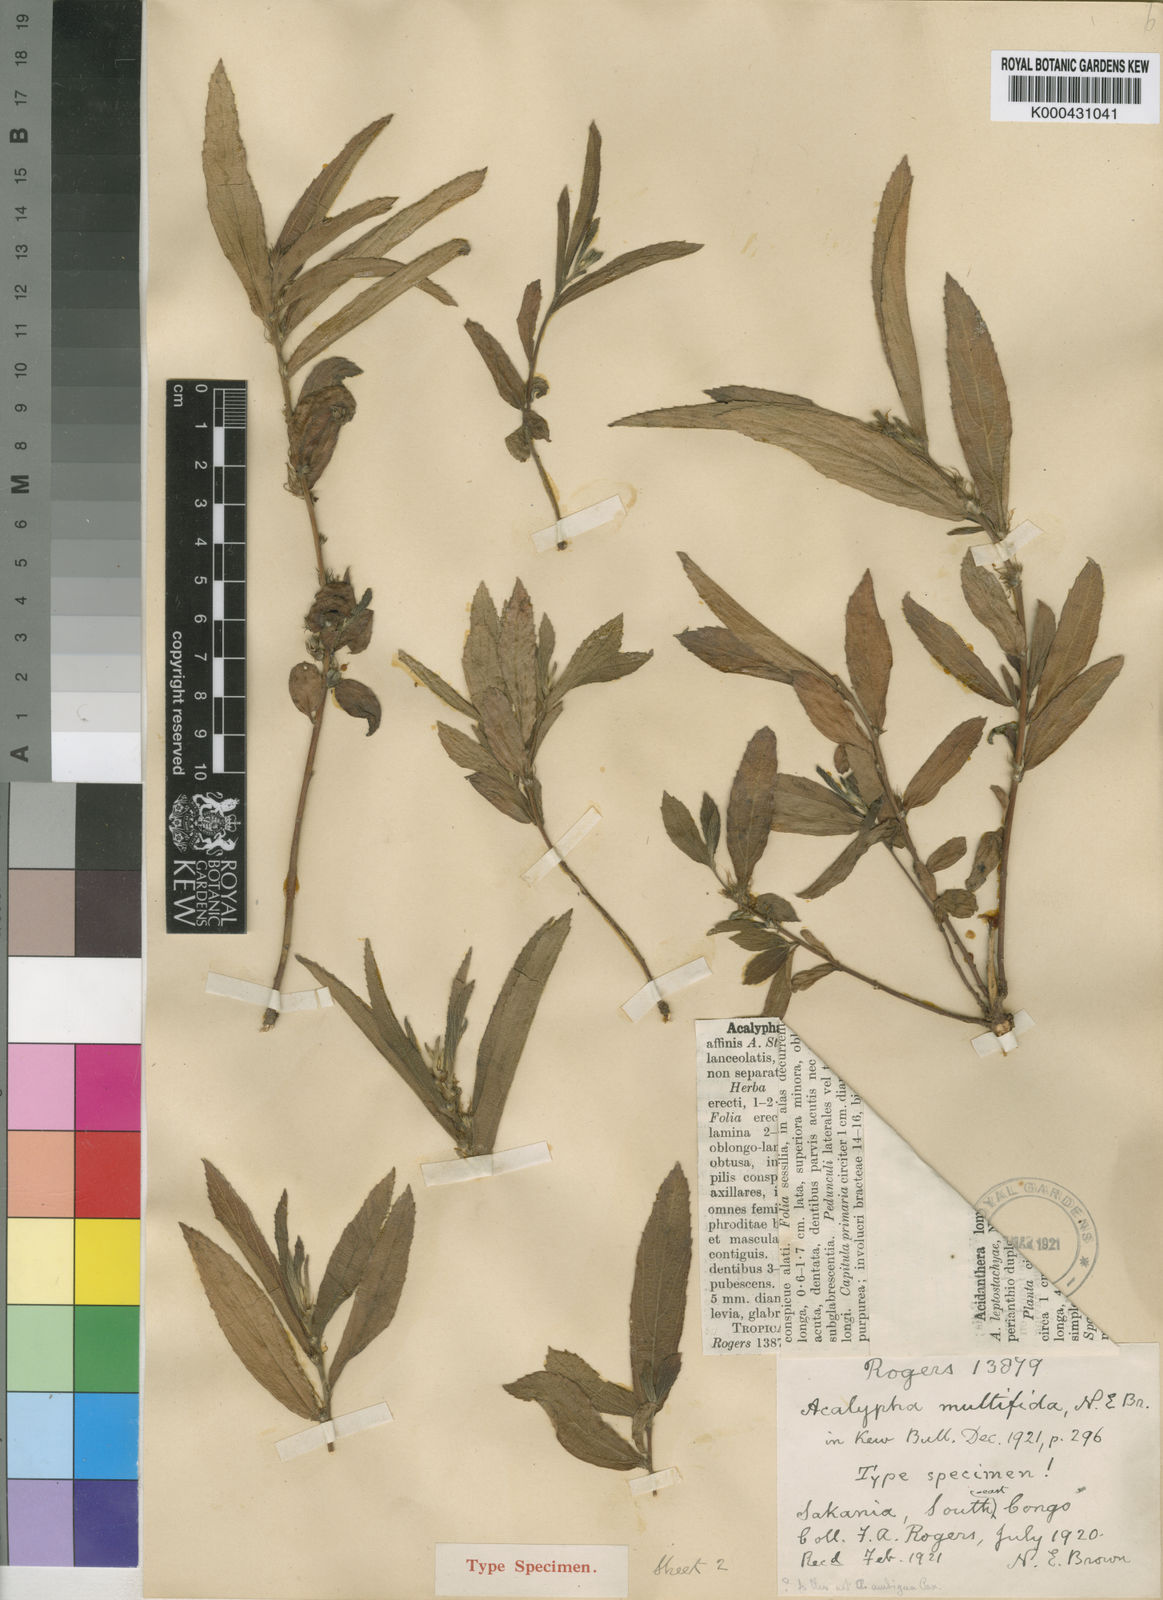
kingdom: Plantae
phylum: Tracheophyta
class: Magnoliopsida
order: Malpighiales
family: Euphorbiaceae
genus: Acalypha
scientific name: Acalypha multifida
